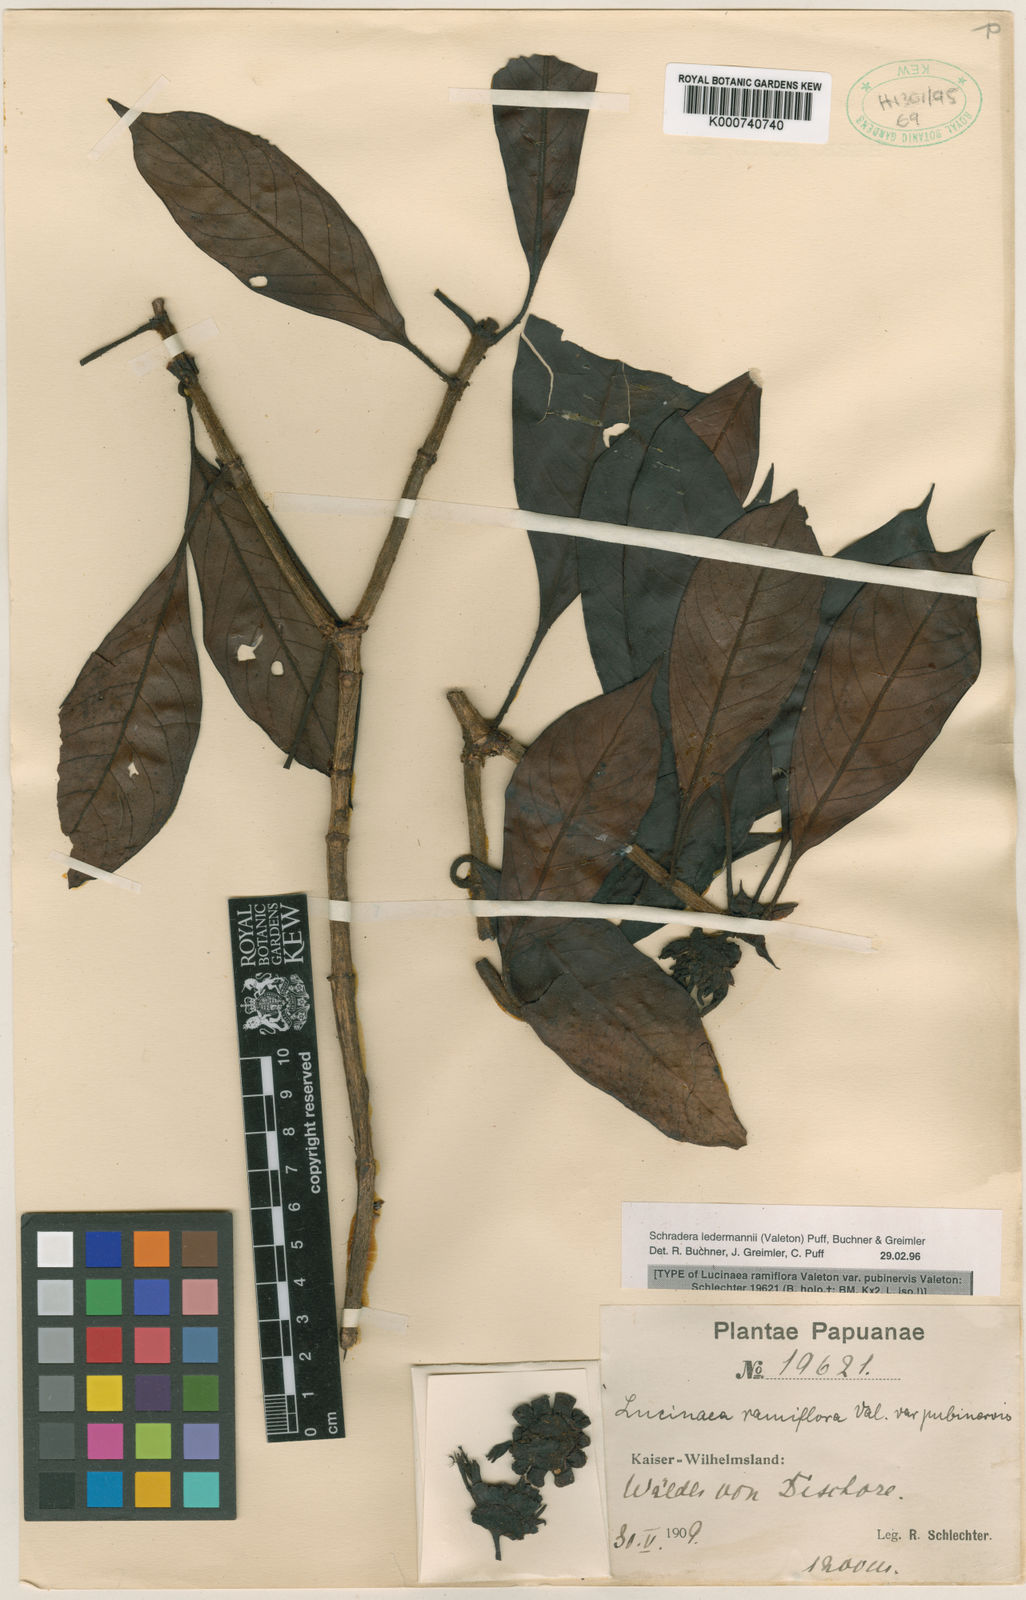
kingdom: Plantae
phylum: Tracheophyta
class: Magnoliopsida
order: Gentianales
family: Rubiaceae
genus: Schradera
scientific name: Schradera ledermannii
